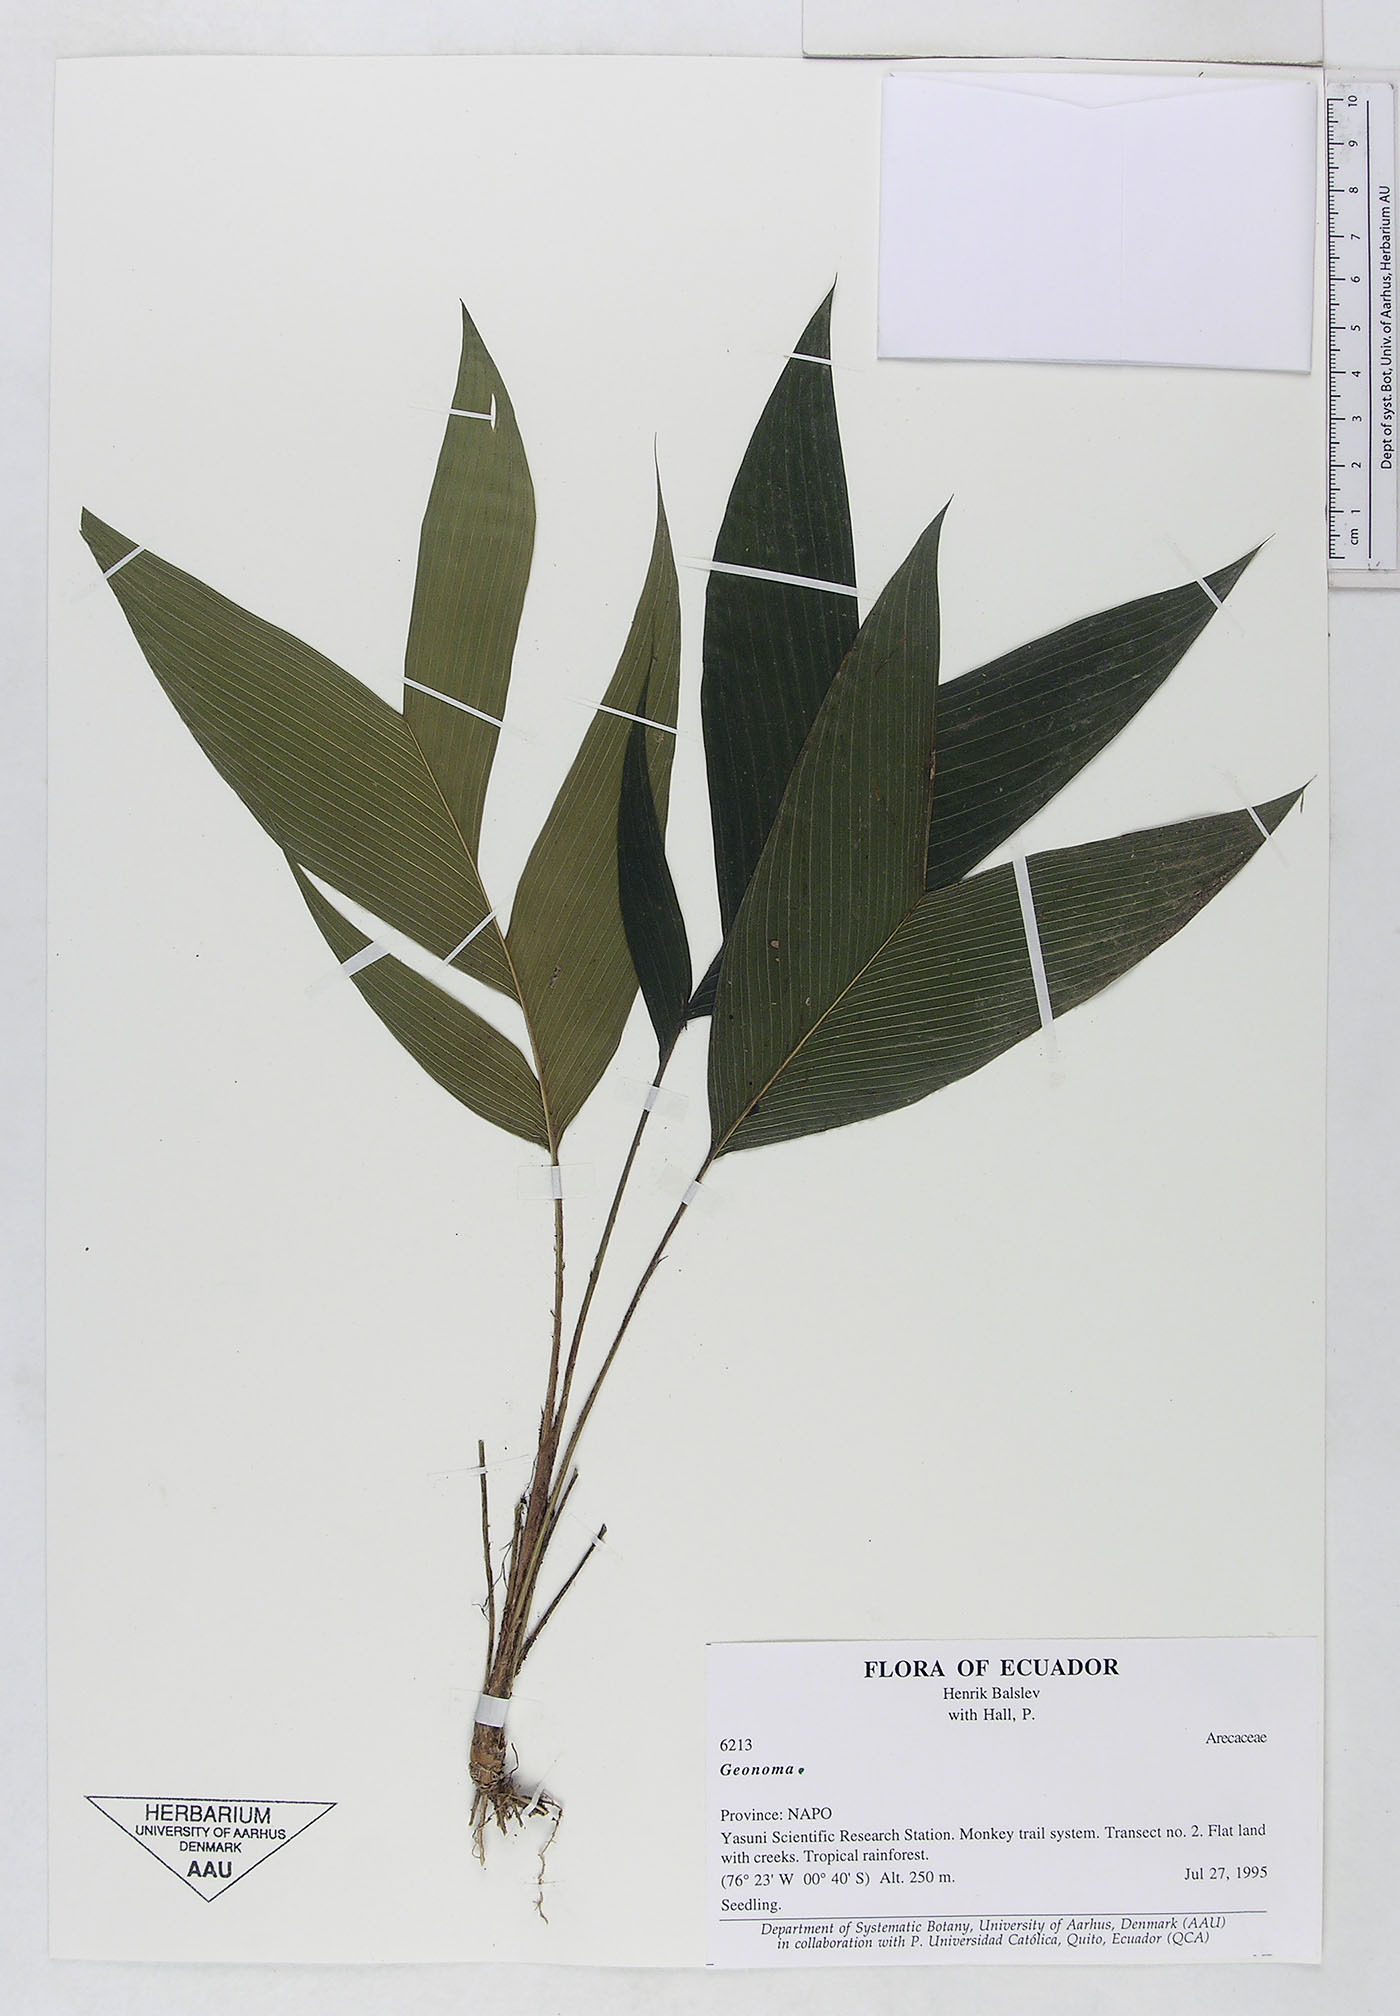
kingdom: Plantae
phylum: Tracheophyta
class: Liliopsida
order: Arecales
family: Arecaceae
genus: Geonoma
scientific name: Geonoma
